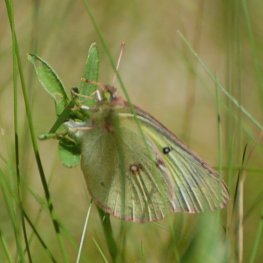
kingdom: Animalia
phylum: Arthropoda
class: Insecta
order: Lepidoptera
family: Pieridae
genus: Colias
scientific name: Colias philodice
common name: Clouded Sulphur
